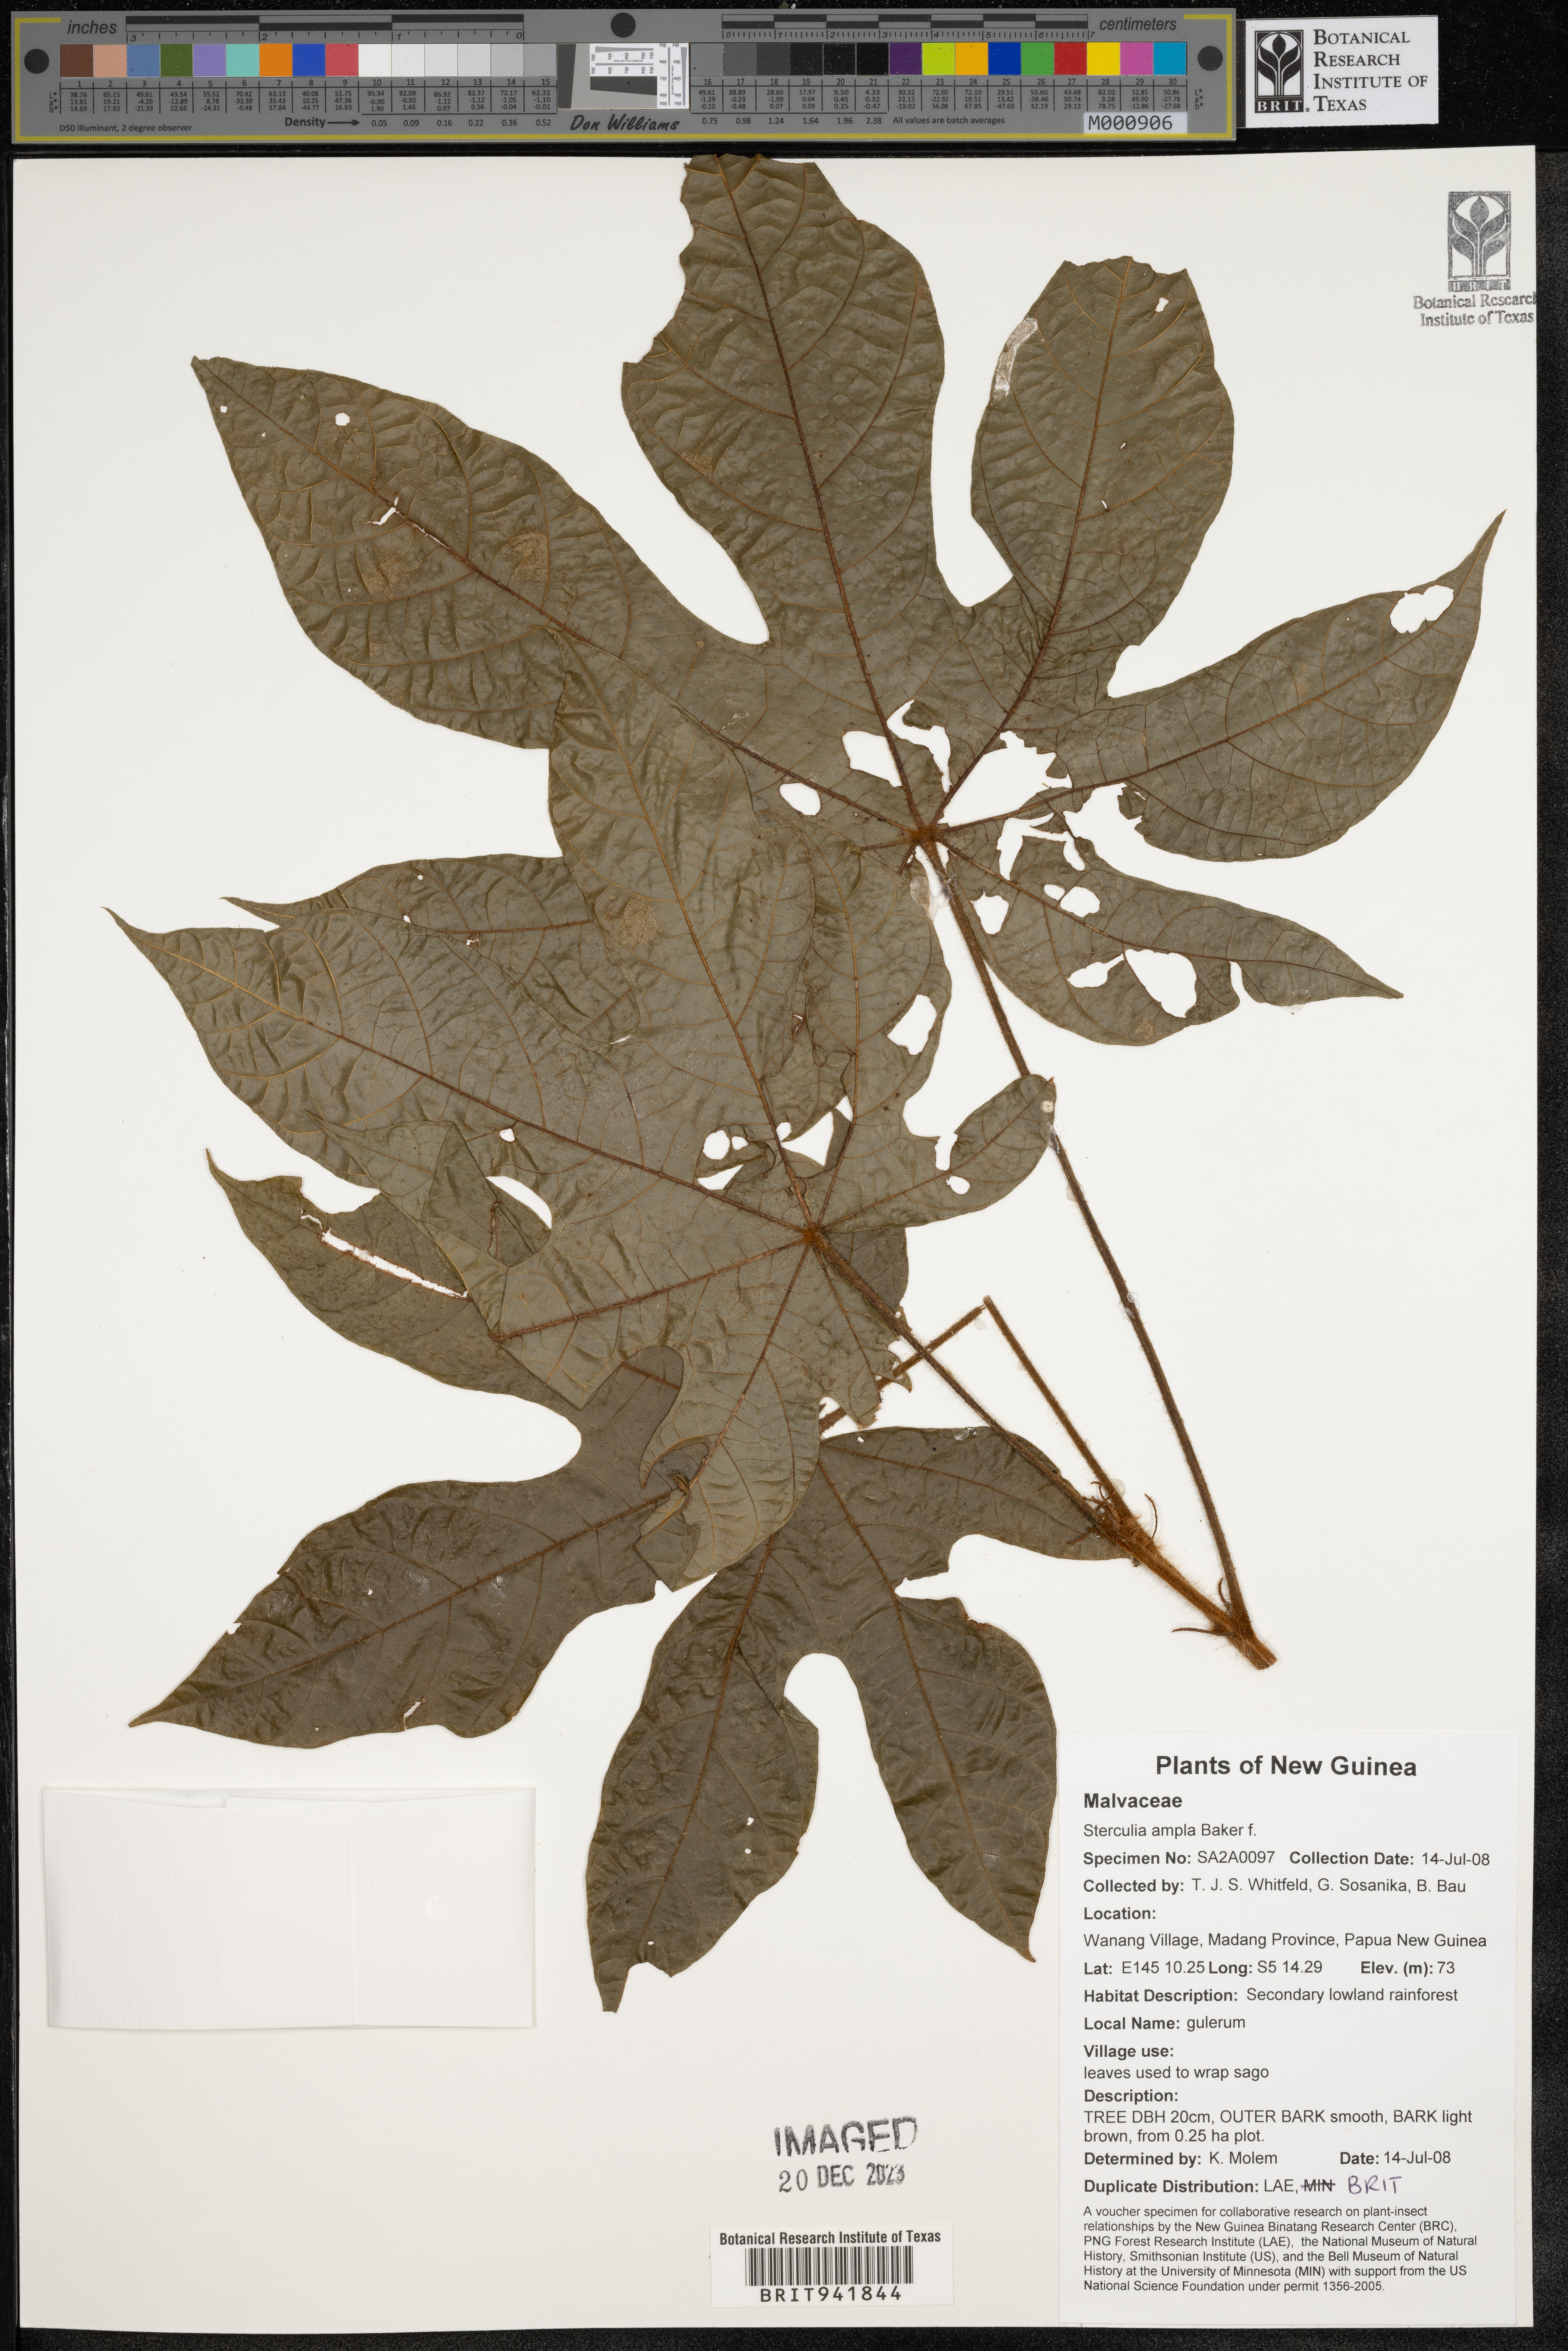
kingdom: Plantae
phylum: Tracheophyta
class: Magnoliopsida
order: Malvales
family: Malvaceae
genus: Sterculia
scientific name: Sterculia
